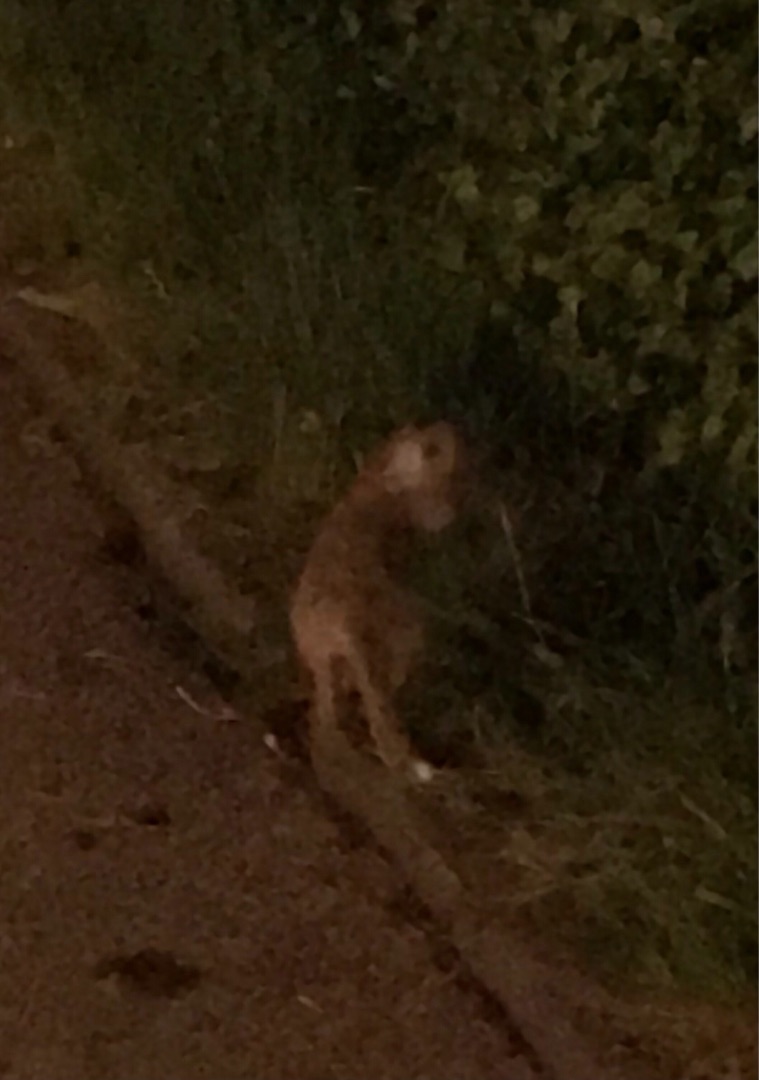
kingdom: Animalia
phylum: Chordata
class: Mammalia
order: Carnivora
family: Canidae
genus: Vulpes
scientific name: Vulpes vulpes
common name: Ræv
